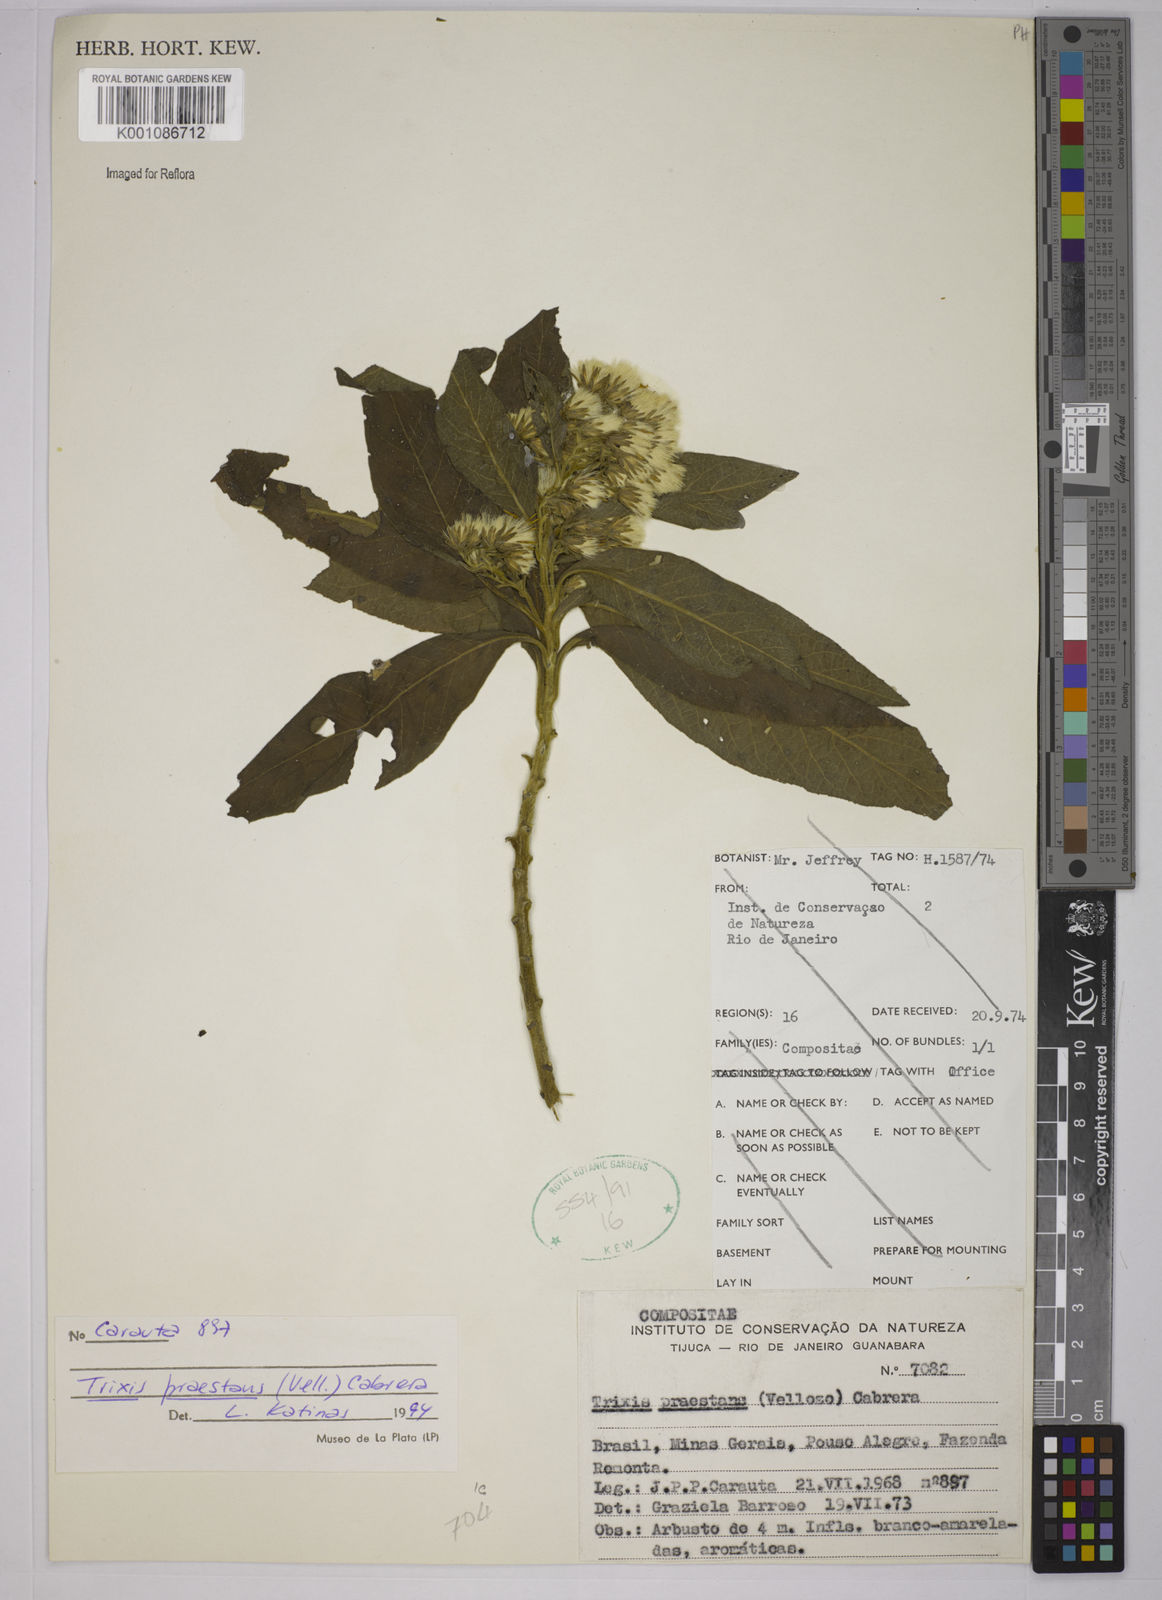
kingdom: Plantae
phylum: Tracheophyta
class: Magnoliopsida
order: Asterales
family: Asteraceae
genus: Trixis
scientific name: Trixis praestans
